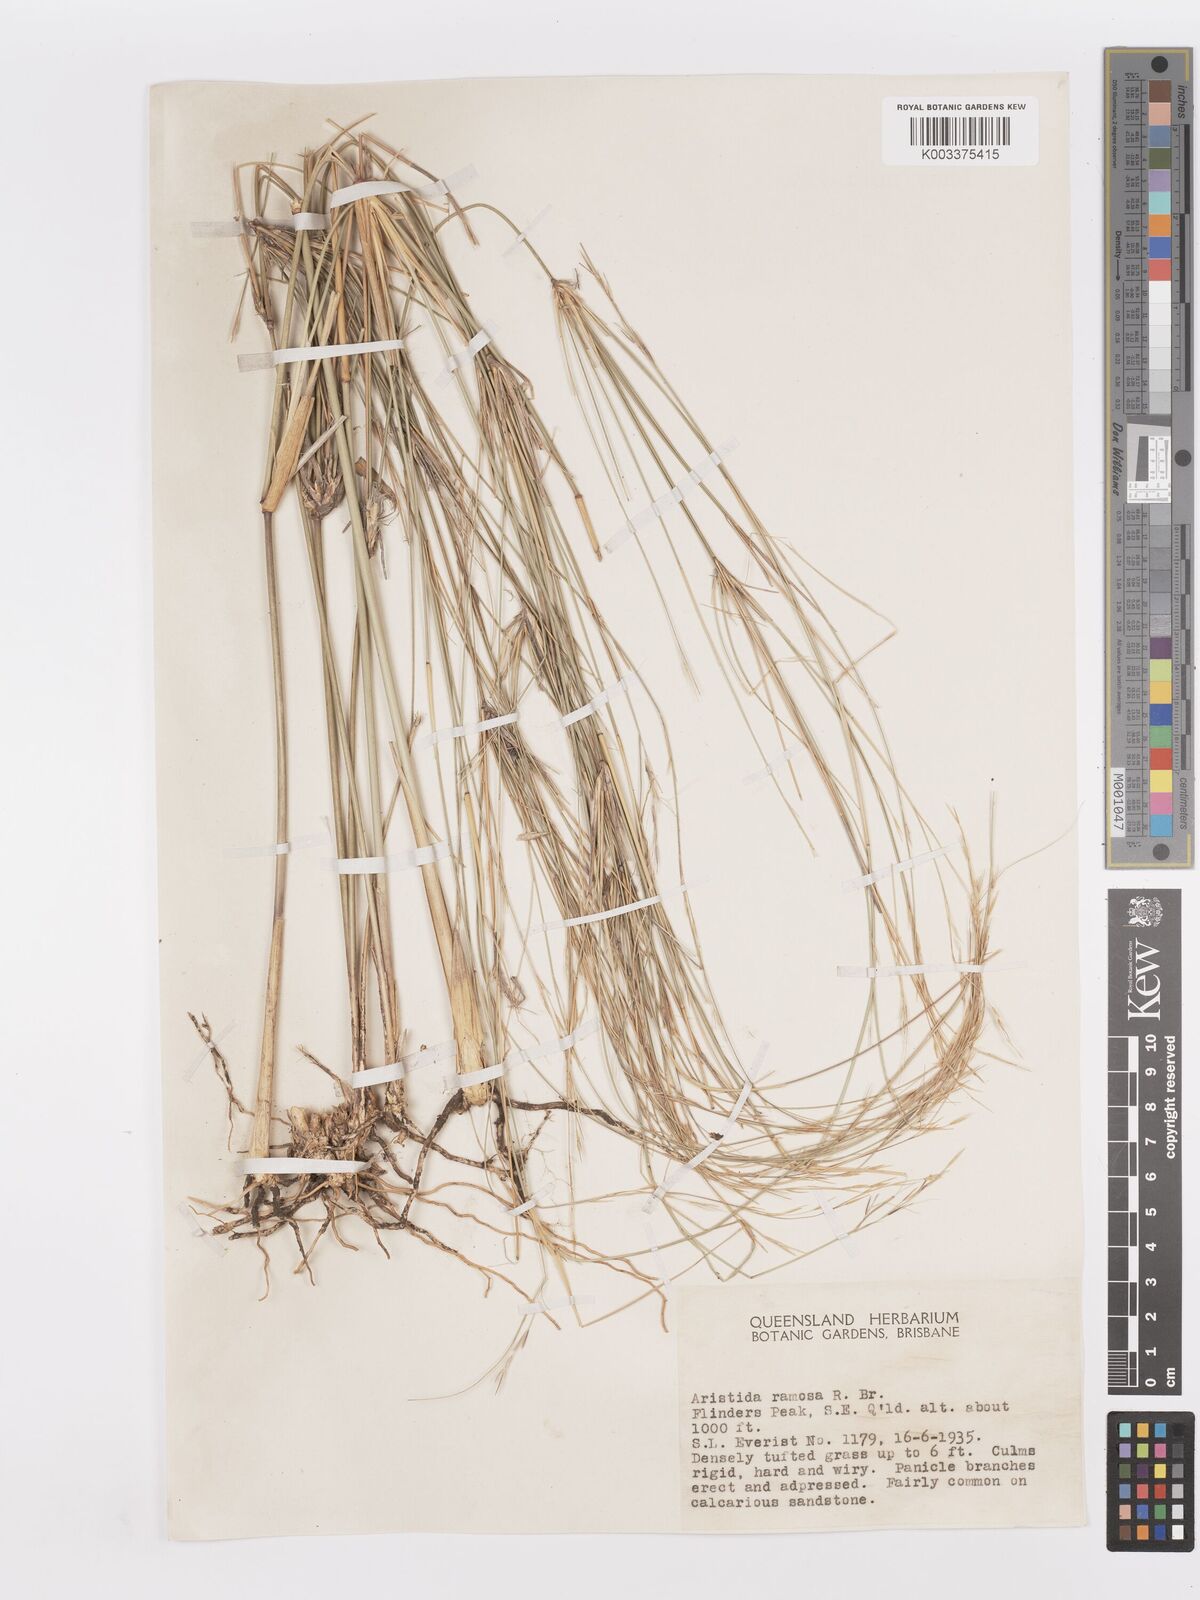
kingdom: Plantae
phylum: Tracheophyta
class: Liliopsida
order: Poales
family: Poaceae
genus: Aristida
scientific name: Aristida ramosa
